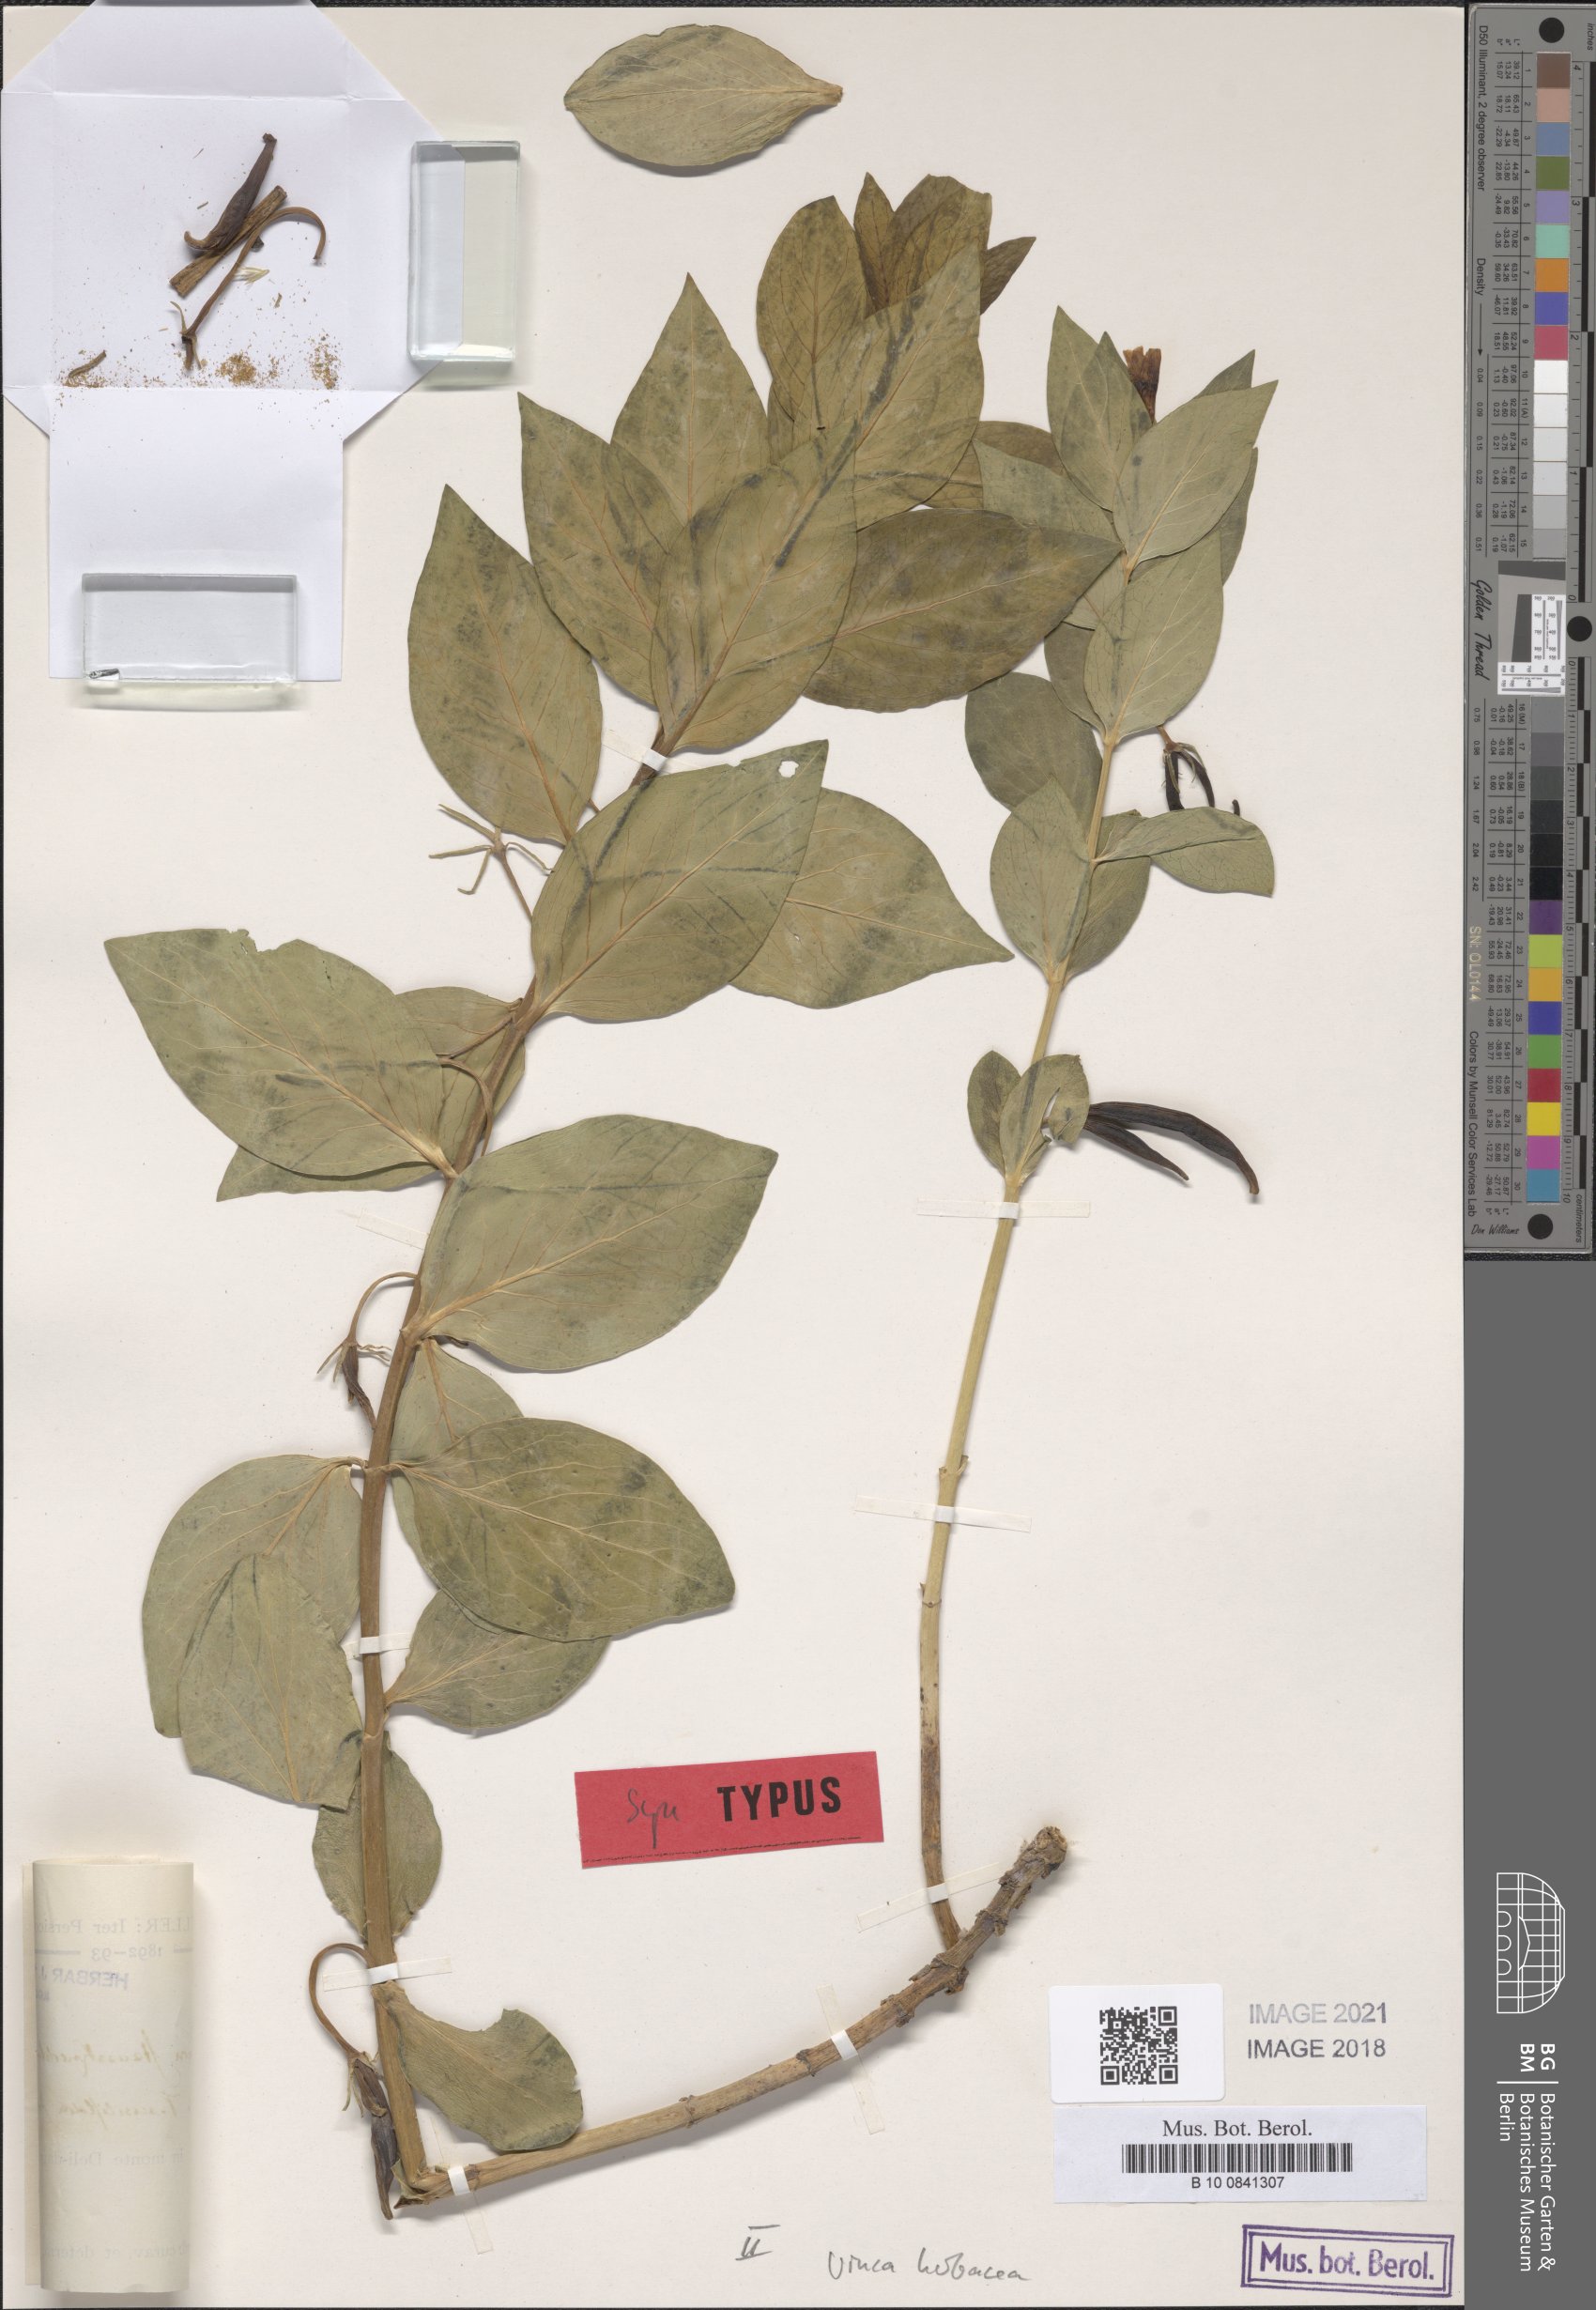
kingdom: Plantae
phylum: Tracheophyta
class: Magnoliopsida
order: Gentianales
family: Apocynaceae
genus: Vinca
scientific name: Vinca herbacea
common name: Herbaceous periwinkle
